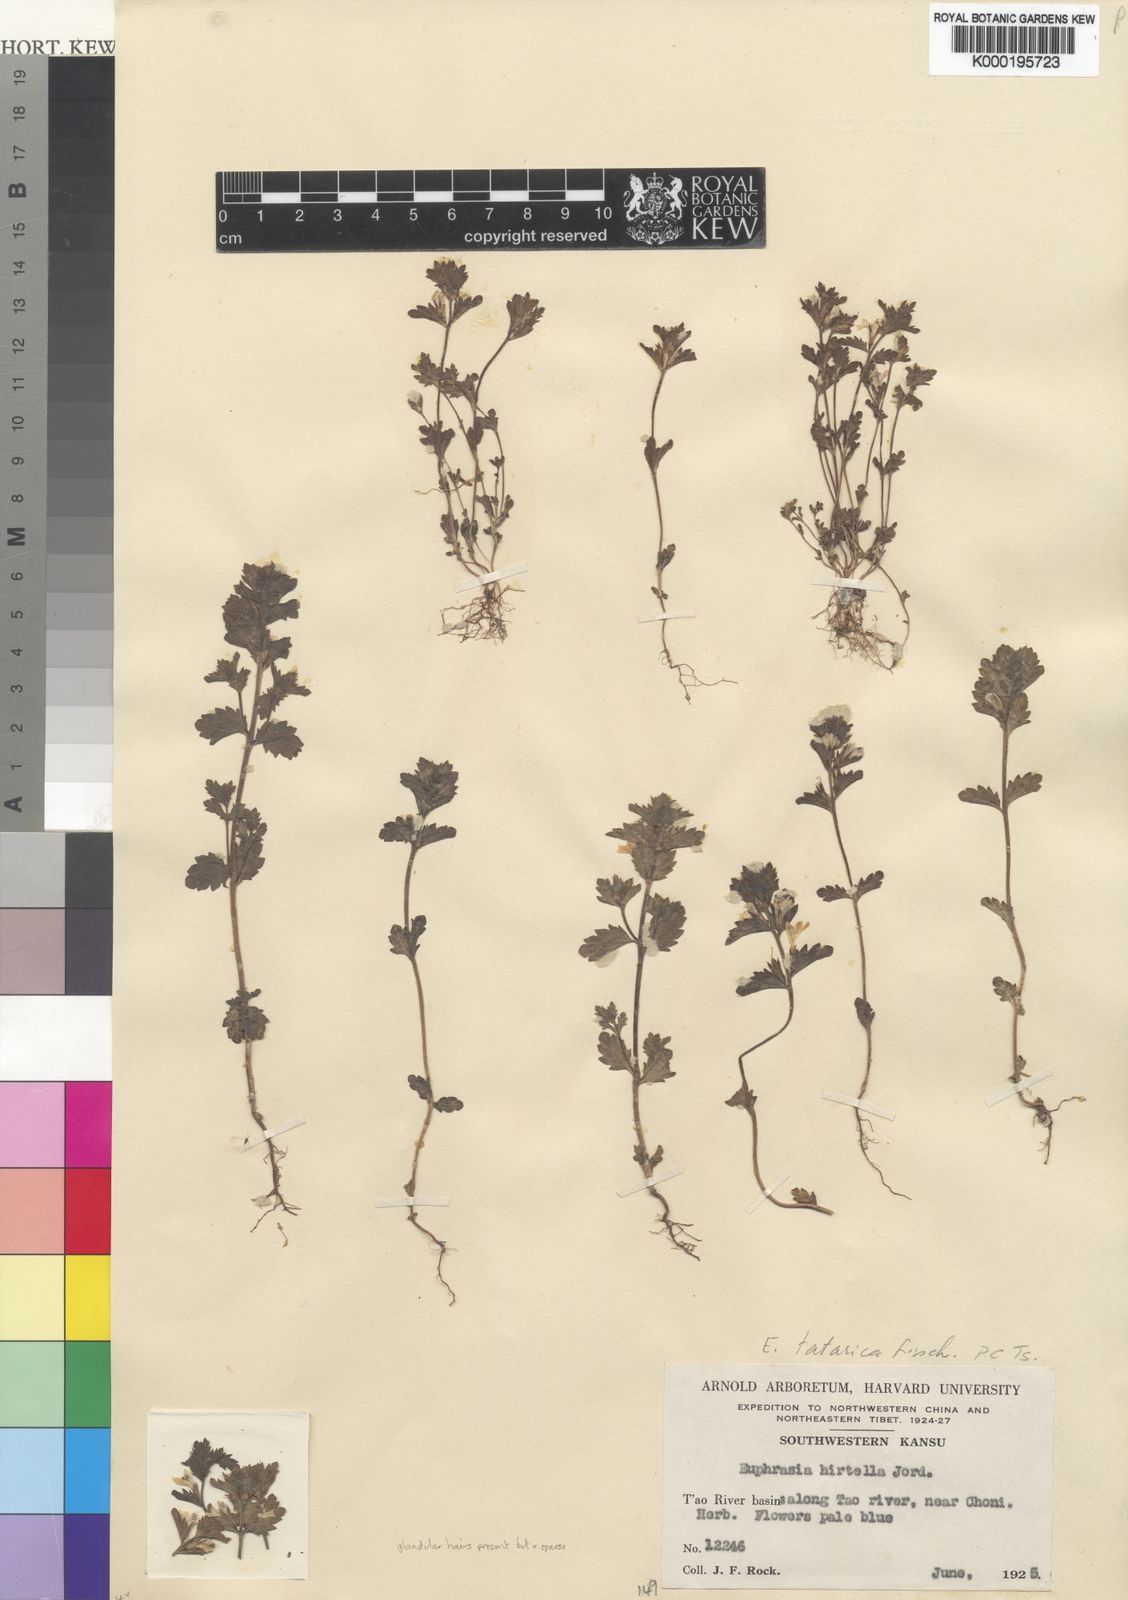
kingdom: Plantae
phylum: Tracheophyta
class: Magnoliopsida
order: Lamiales
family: Orobanchaceae
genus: Euphrasia
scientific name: Euphrasia
